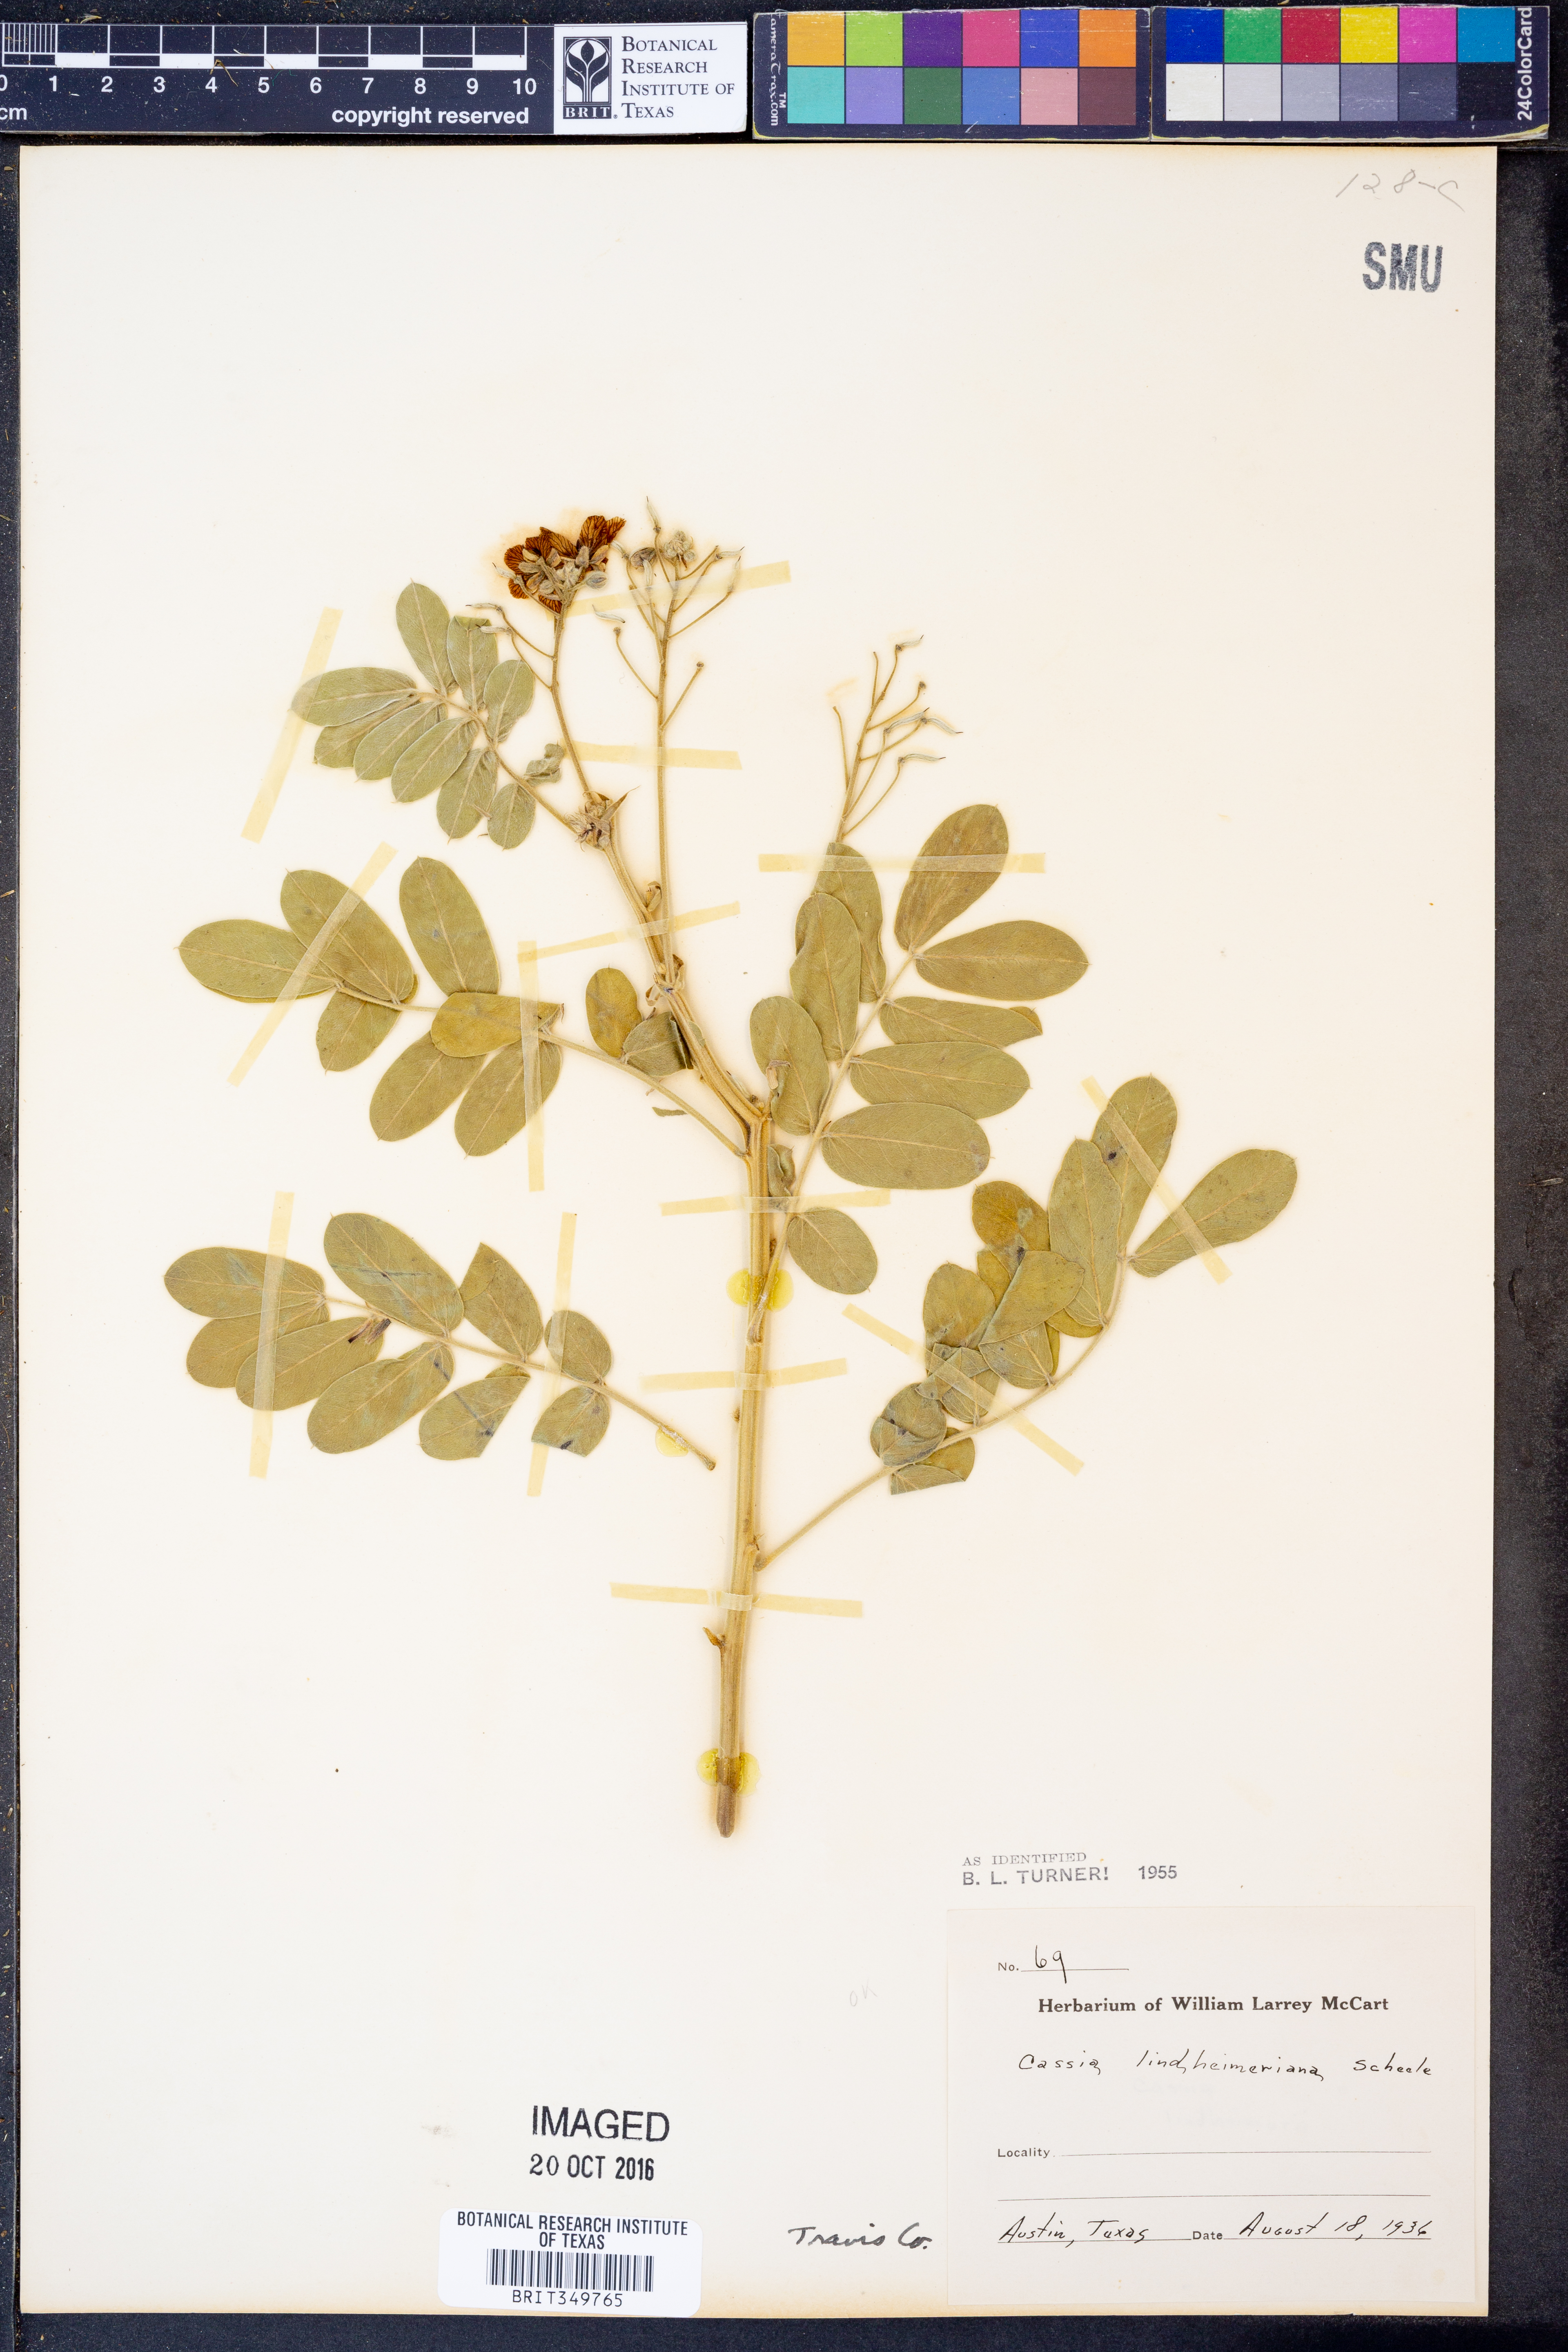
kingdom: Plantae
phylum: Tracheophyta
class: Magnoliopsida
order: Fabales
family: Fabaceae
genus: Senna
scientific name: Senna lindheimeriana
